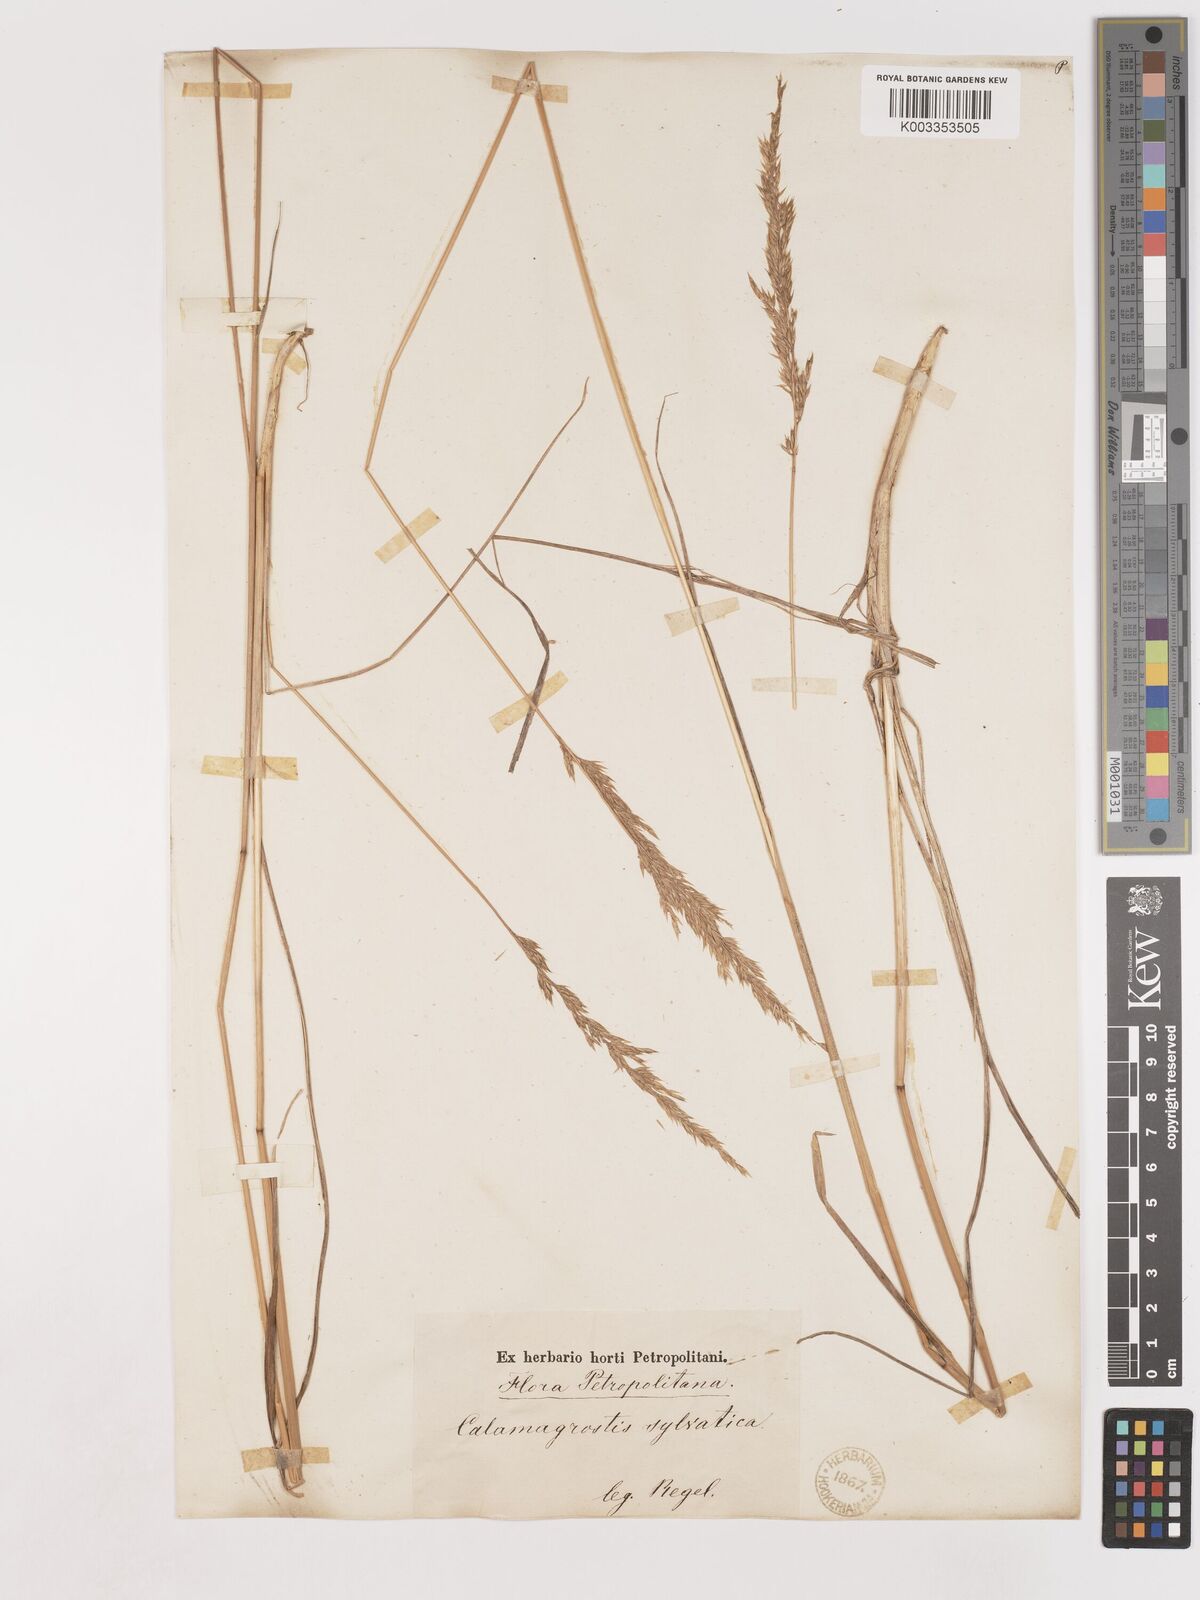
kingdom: Plantae
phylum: Tracheophyta
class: Liliopsida
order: Poales
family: Poaceae
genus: Calamagrostis
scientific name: Calamagrostis
